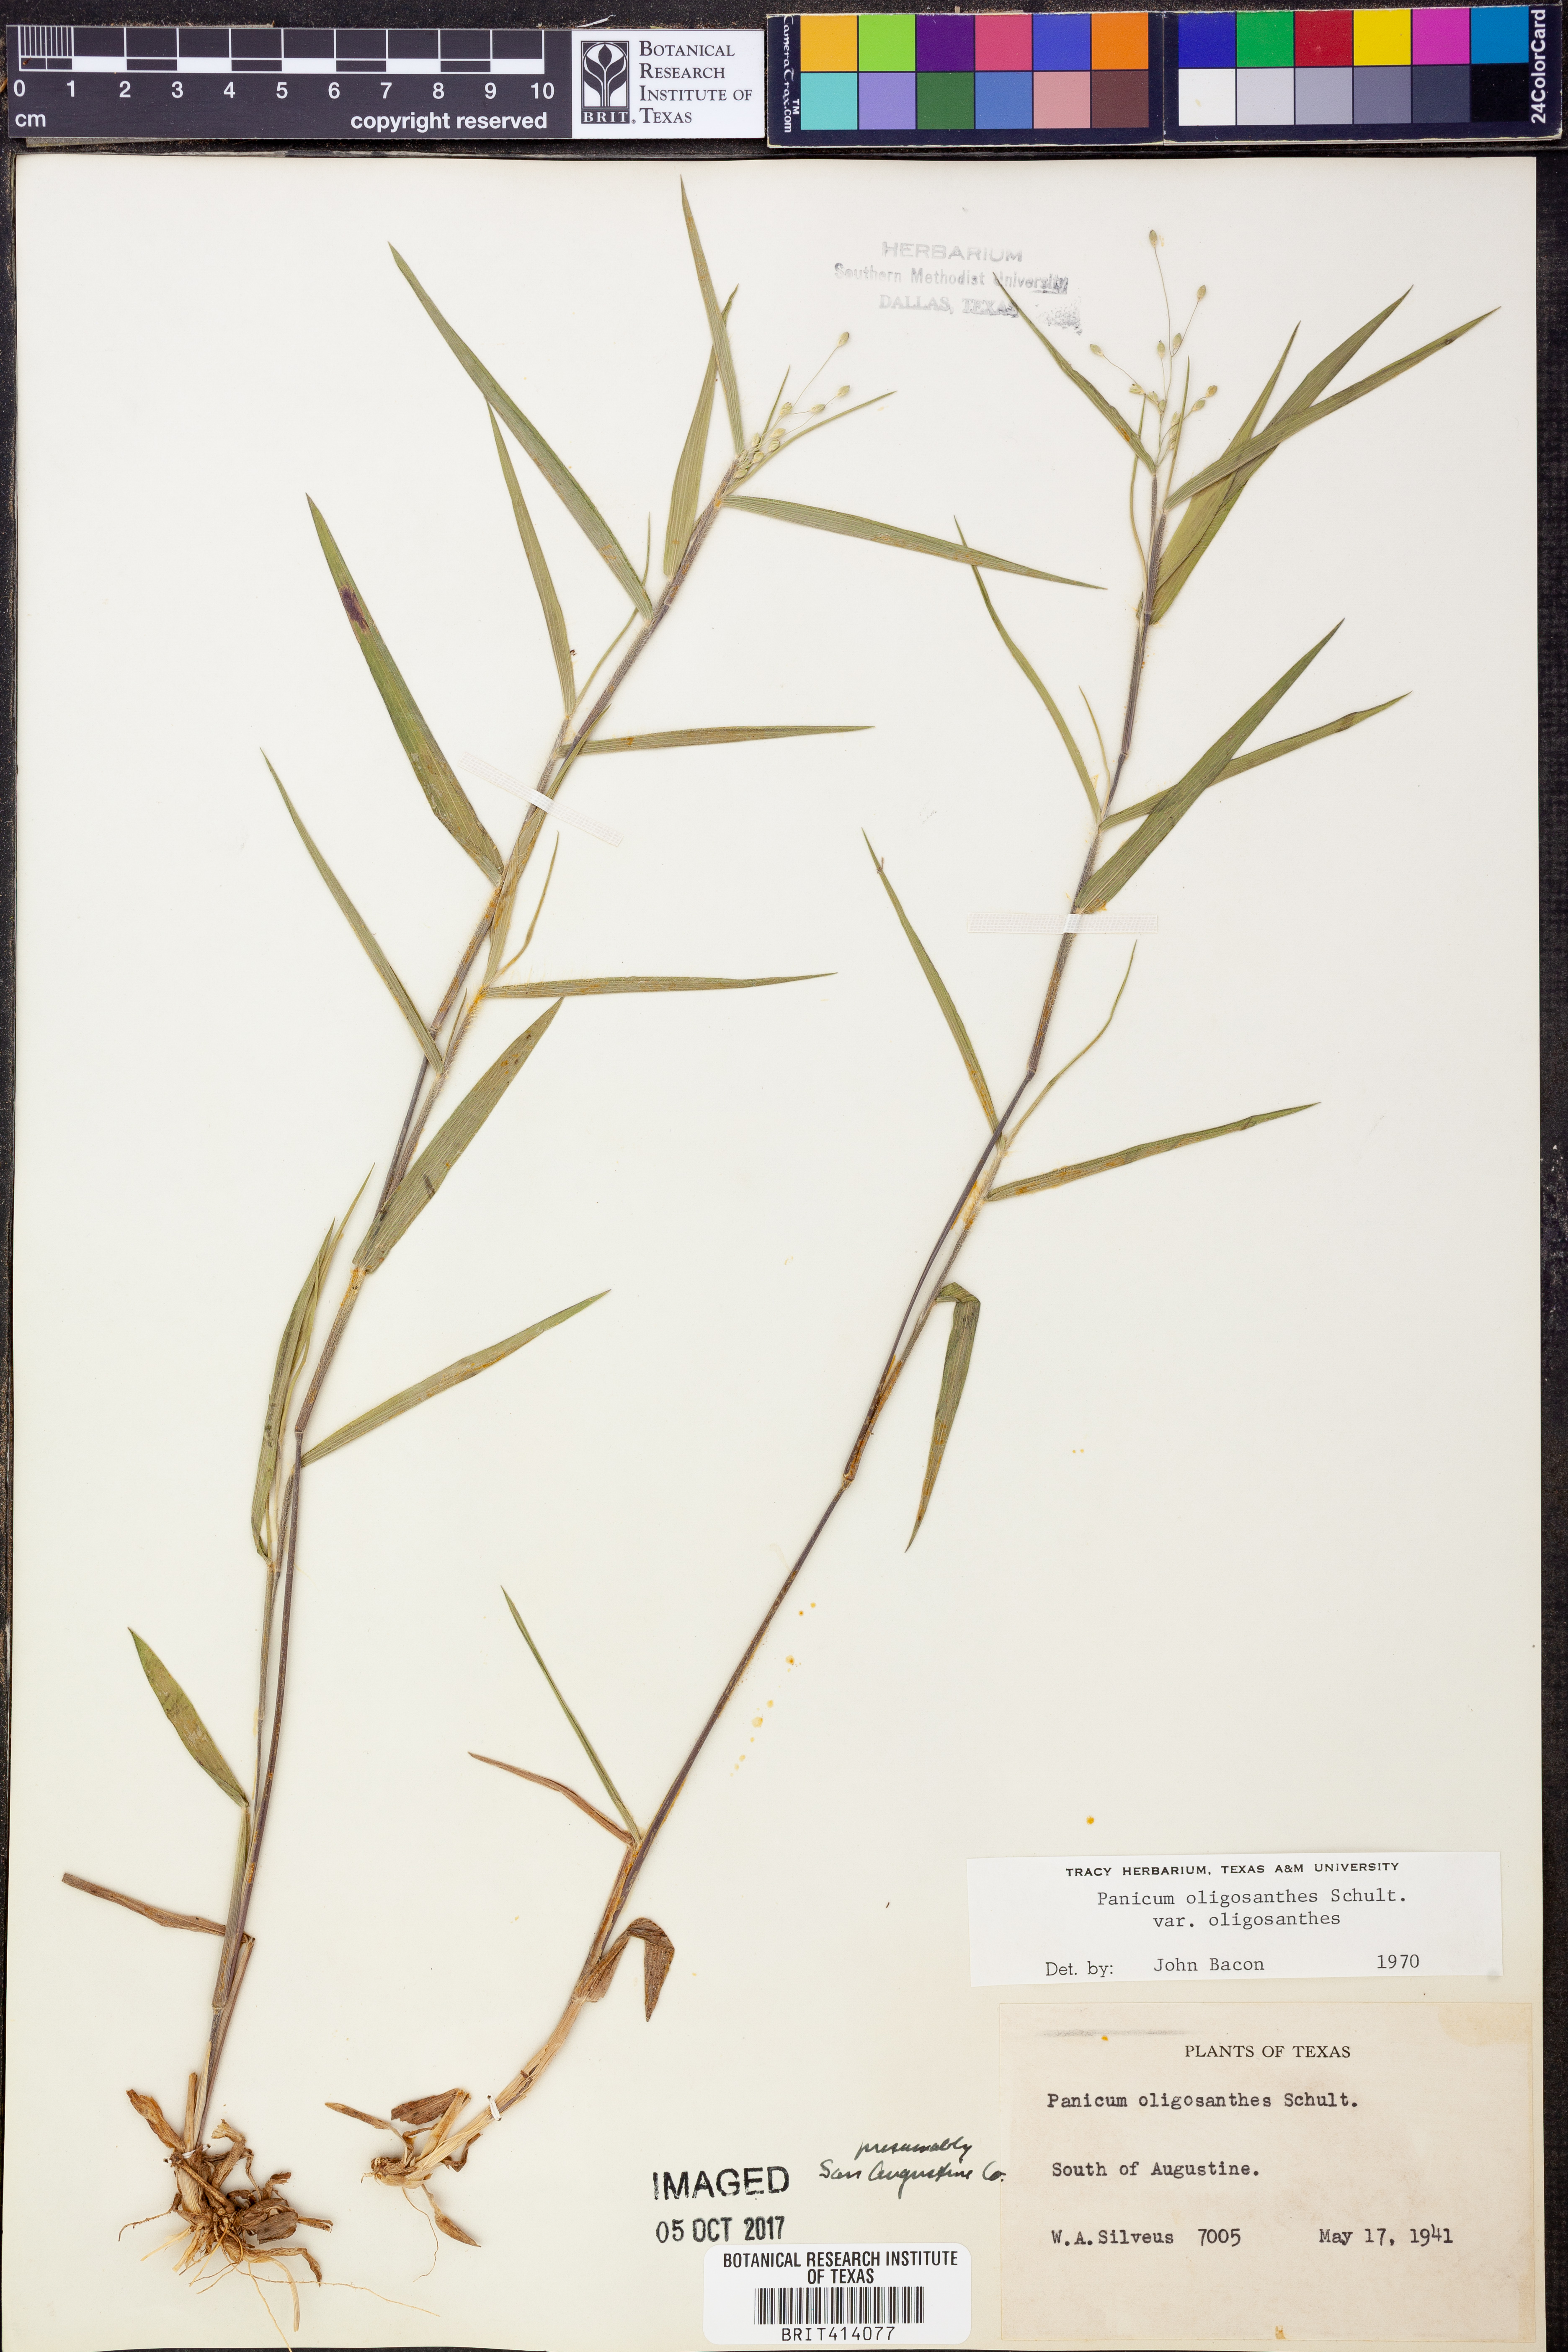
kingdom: Plantae
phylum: Tracheophyta
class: Liliopsida
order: Poales
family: Poaceae
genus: Dichanthelium
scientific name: Dichanthelium oligosanthes
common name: Few-anther obscuregrass
